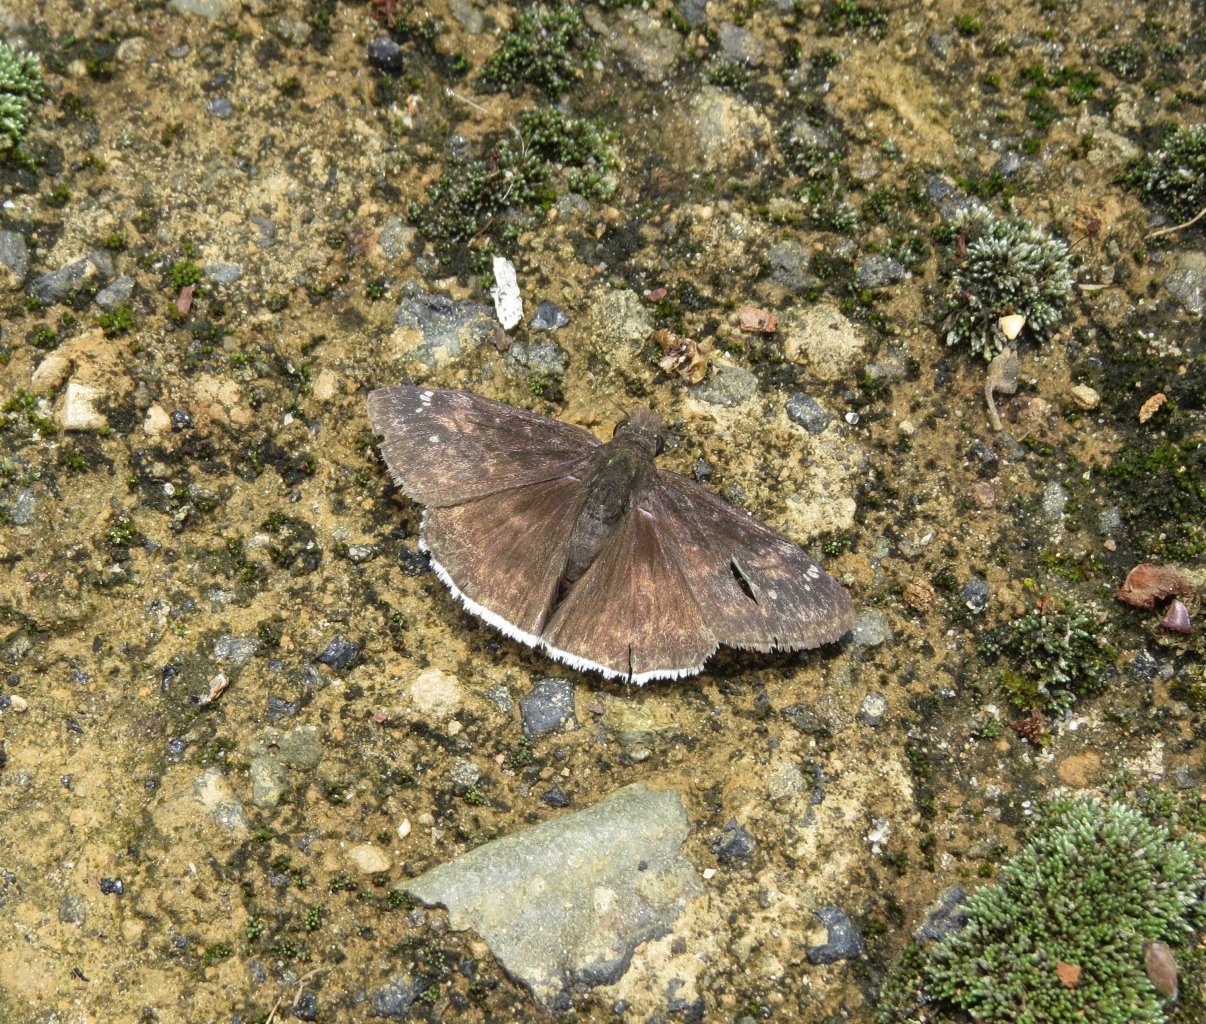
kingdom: Animalia
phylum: Arthropoda
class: Insecta
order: Lepidoptera
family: Hesperiidae
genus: Erynnis
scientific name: Erynnis funeralis
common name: Funereal Duskywing
